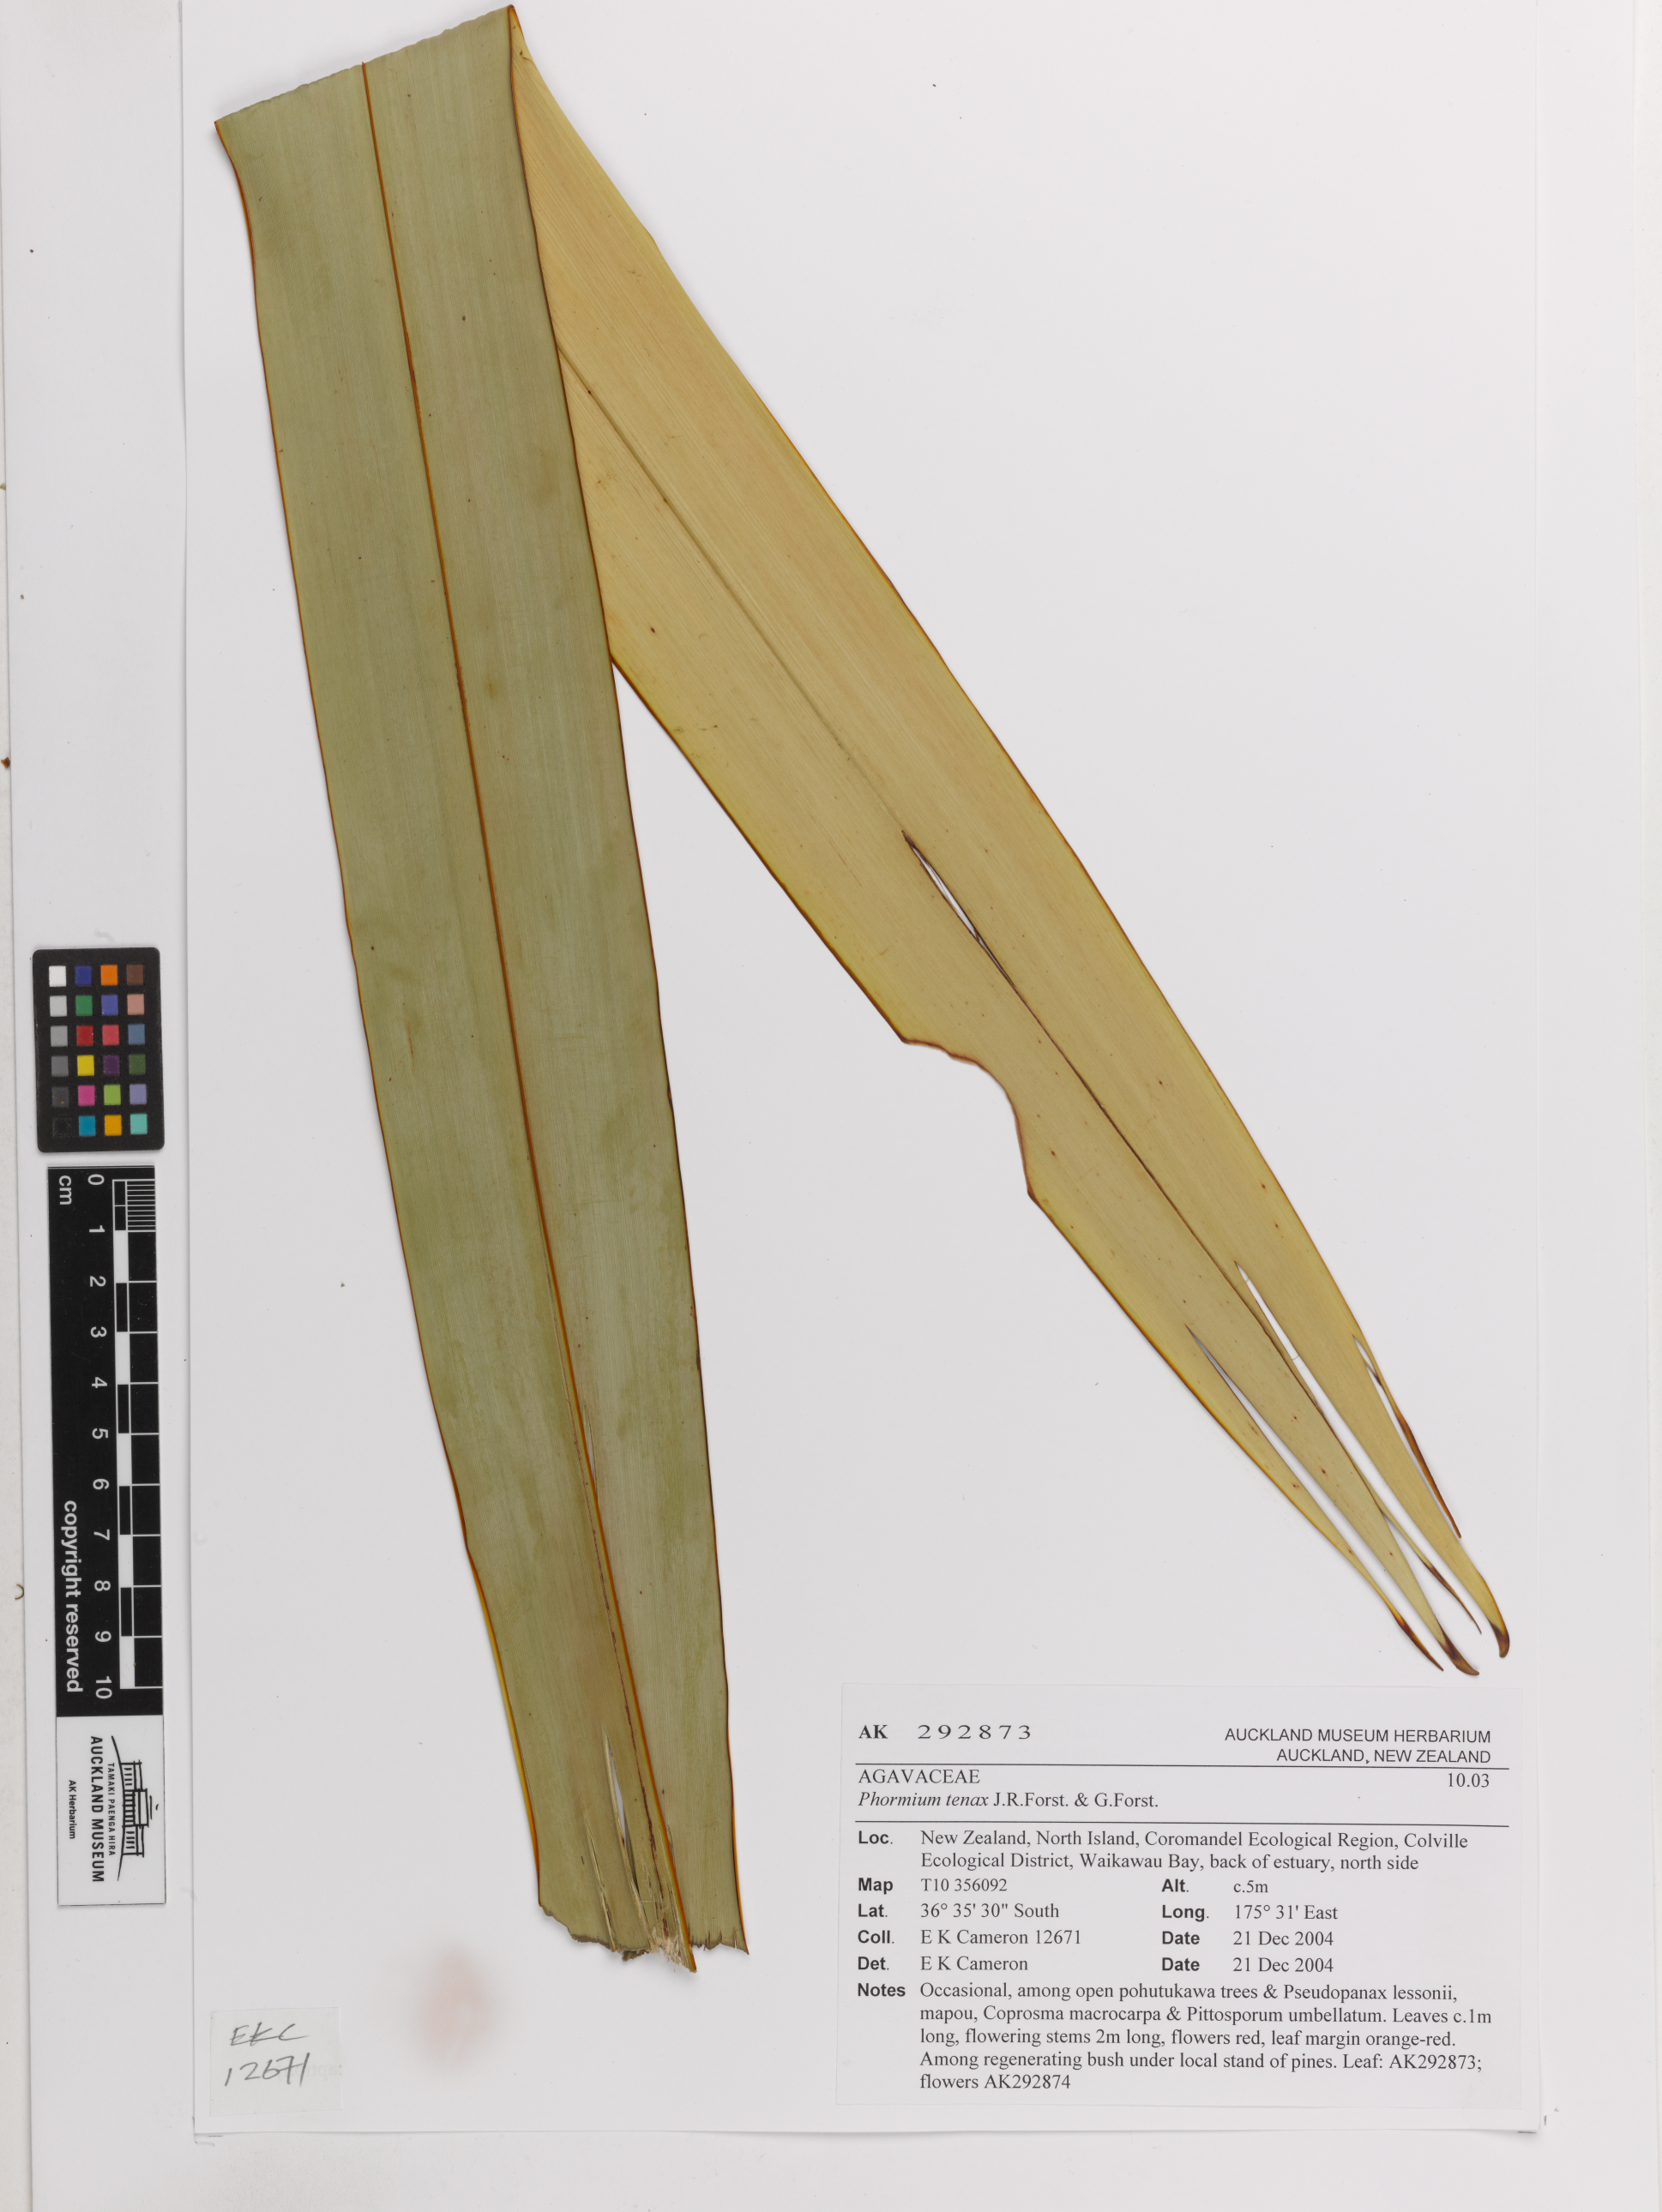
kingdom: Plantae
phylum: Tracheophyta
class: Liliopsida
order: Asparagales
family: Asphodelaceae
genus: Phormium
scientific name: Phormium tenax
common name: New zealand flax
